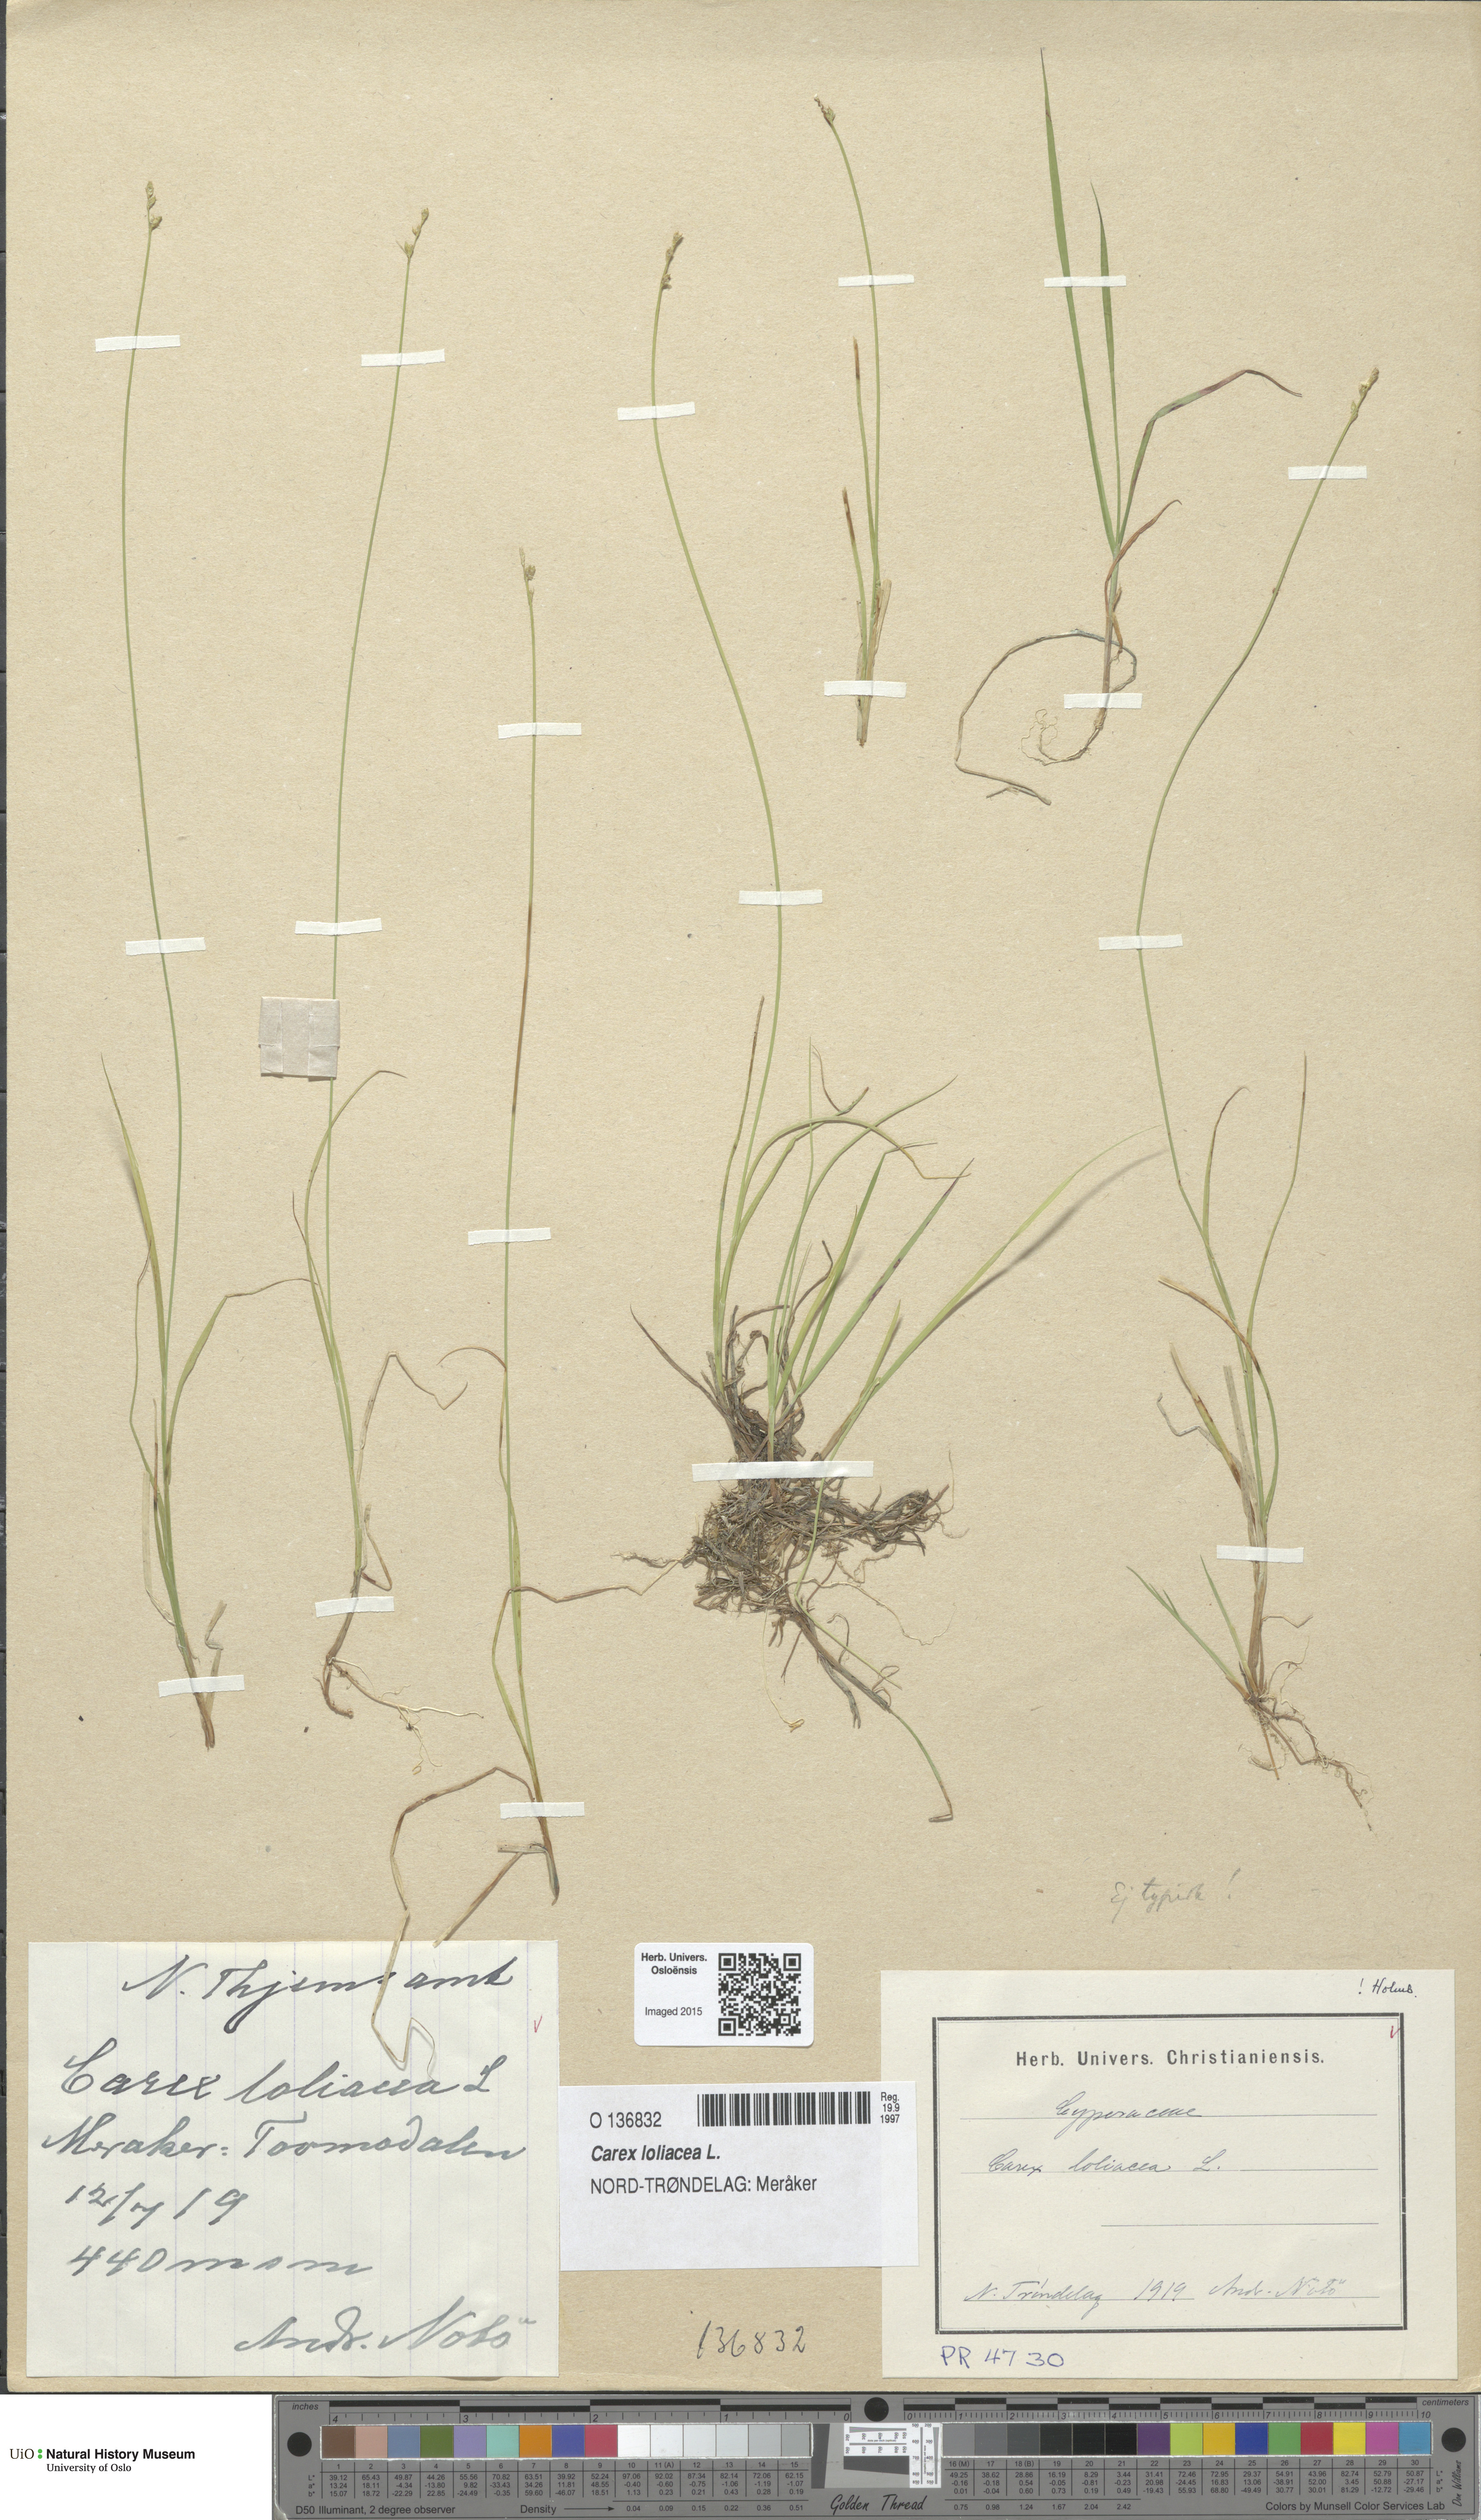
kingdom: Plantae
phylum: Tracheophyta
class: Liliopsida
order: Poales
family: Cyperaceae
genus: Carex
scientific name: Carex loliacea
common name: Ryegrass sedge
